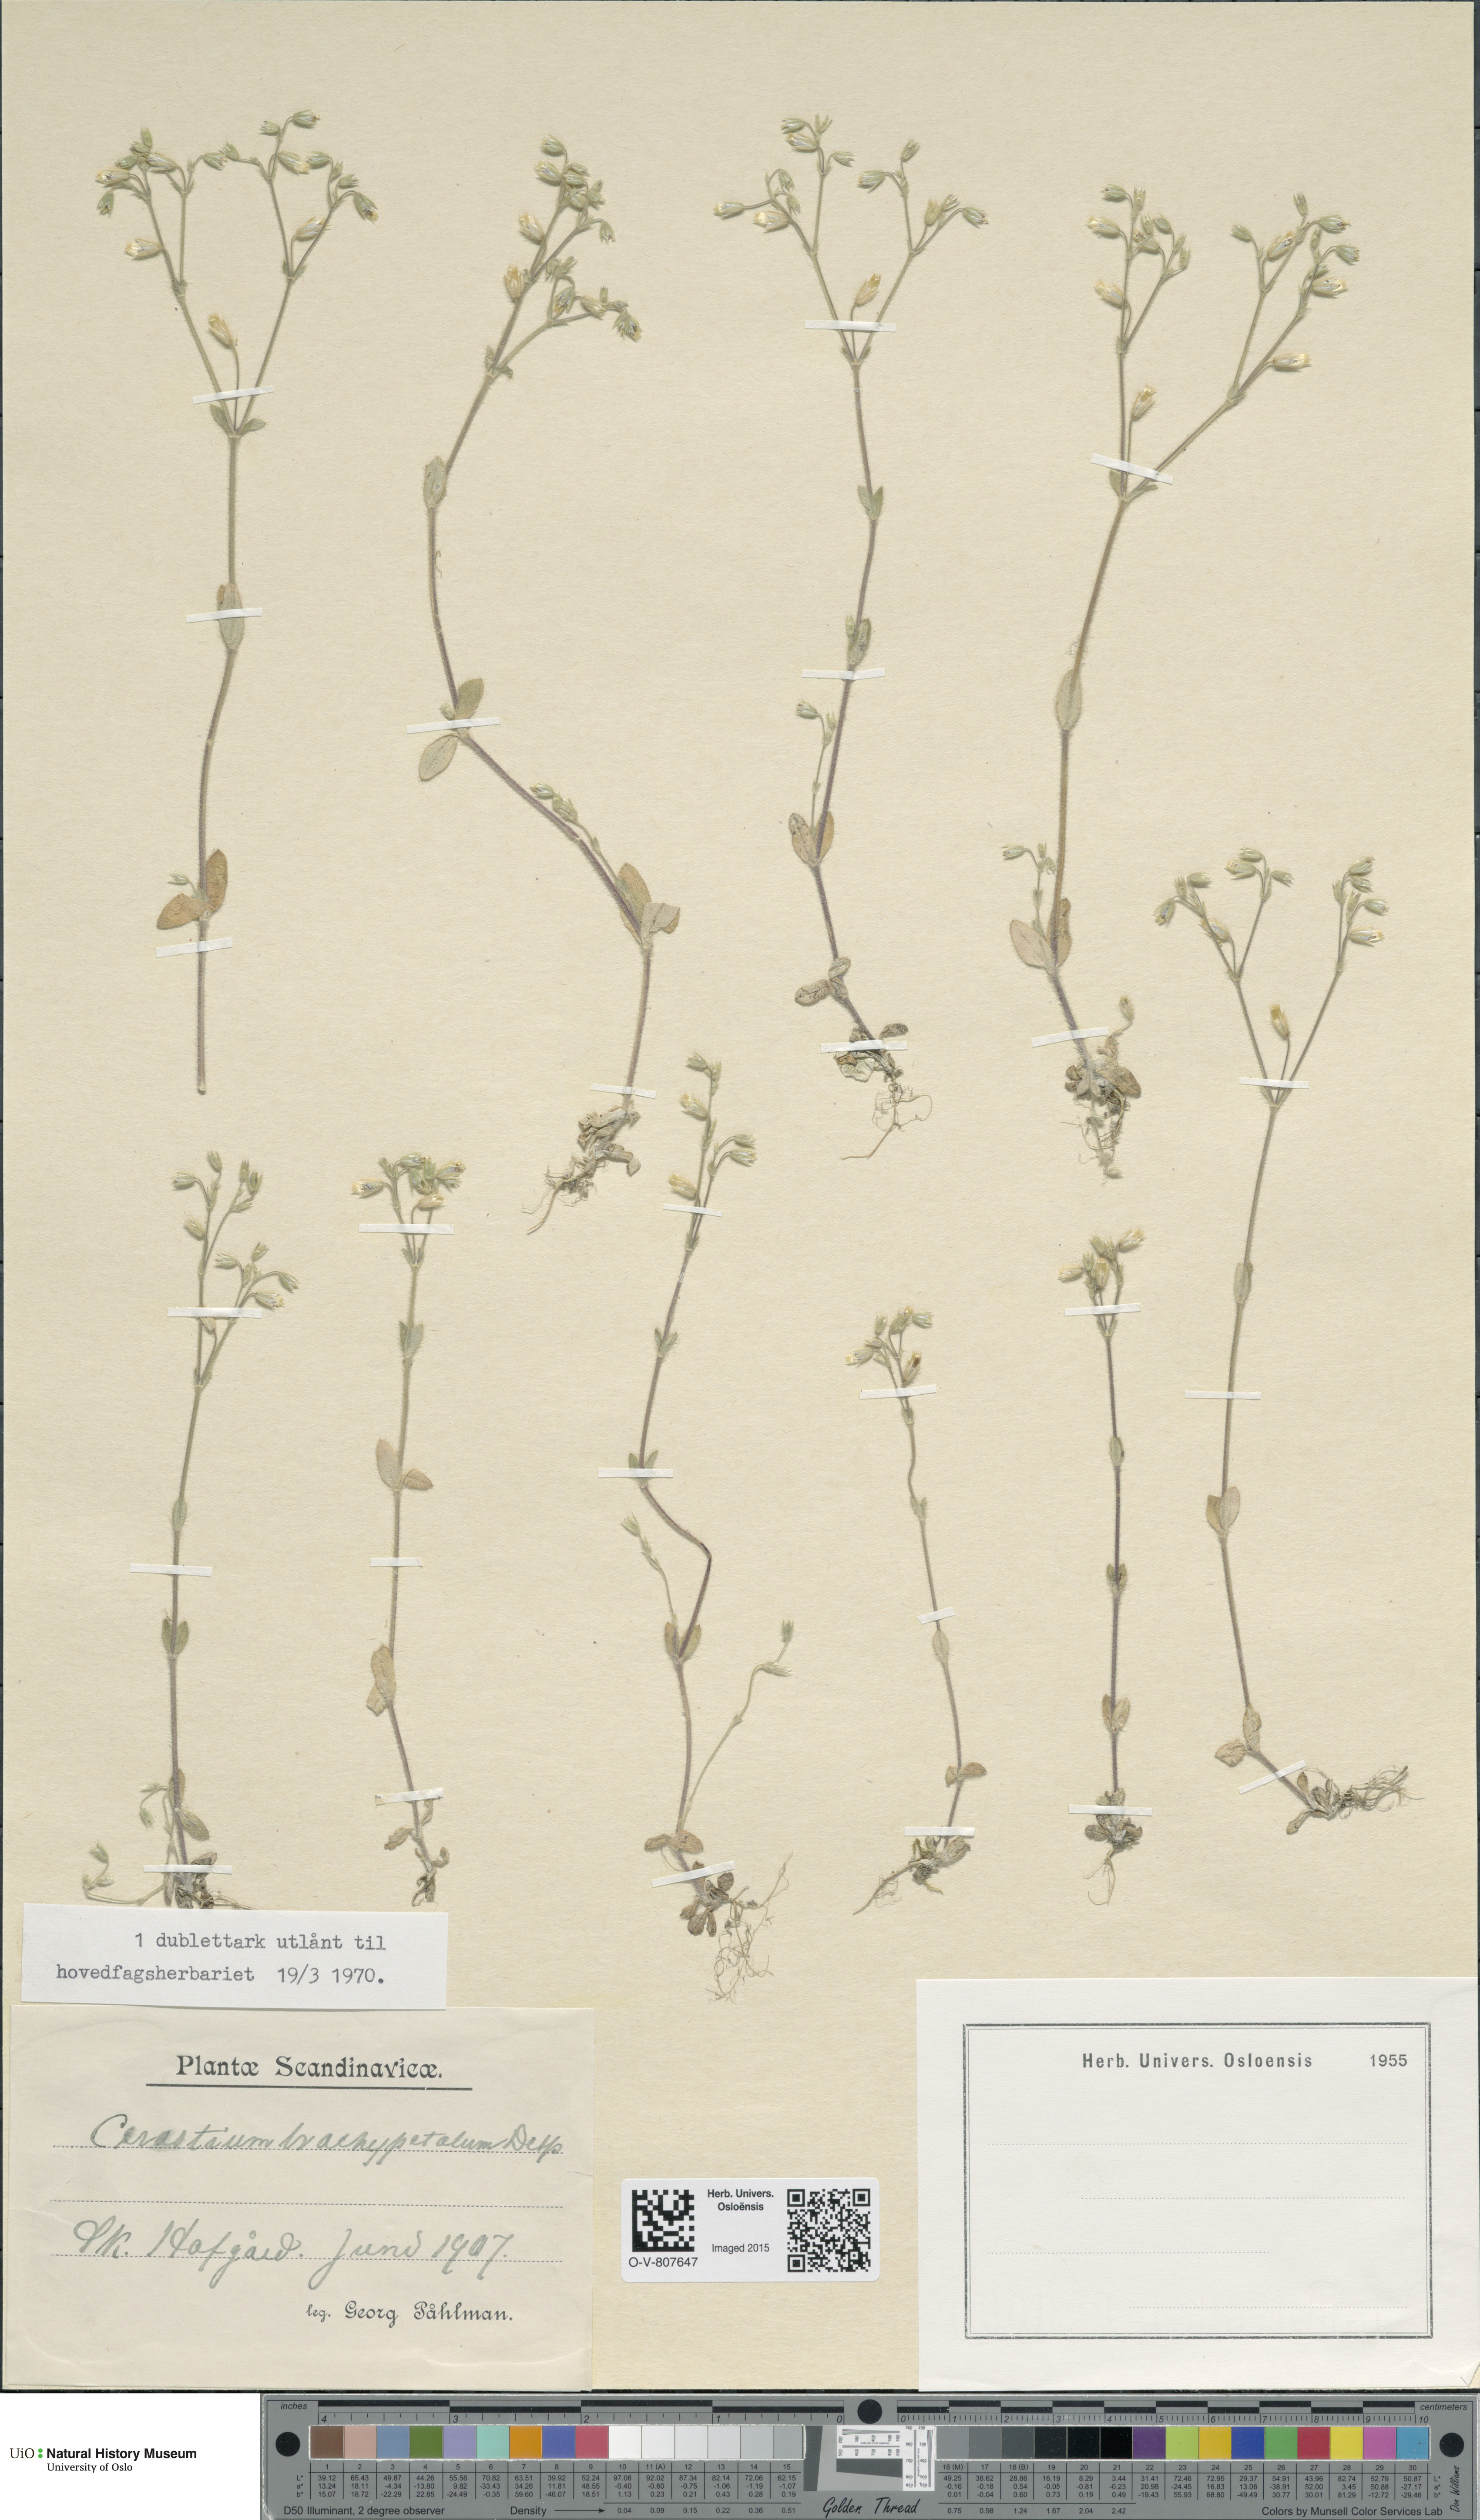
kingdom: Plantae
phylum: Tracheophyta
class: Magnoliopsida
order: Caryophyllales
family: Caryophyllaceae
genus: Cerastium
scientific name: Cerastium brachypetalum
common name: Grey mouse-ear
